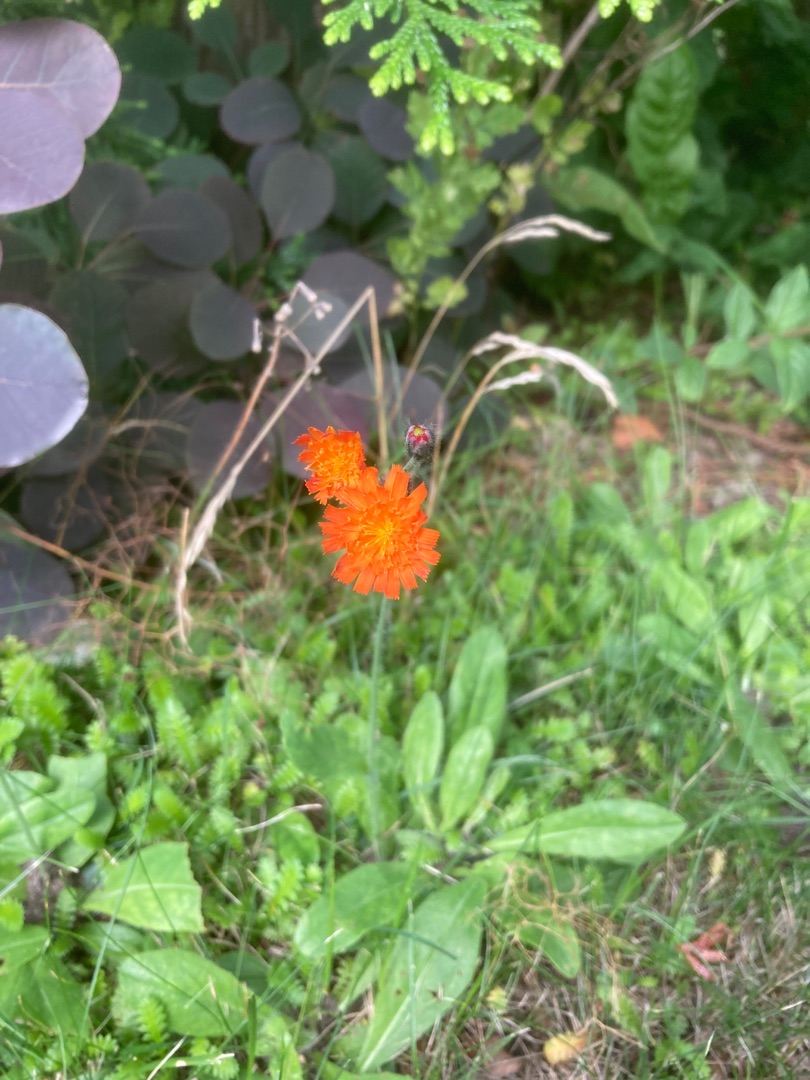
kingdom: Plantae
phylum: Tracheophyta
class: Magnoliopsida
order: Asterales
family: Asteraceae
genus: Pilosella
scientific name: Pilosella aurantiaca
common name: Pomerans-høgeurt
